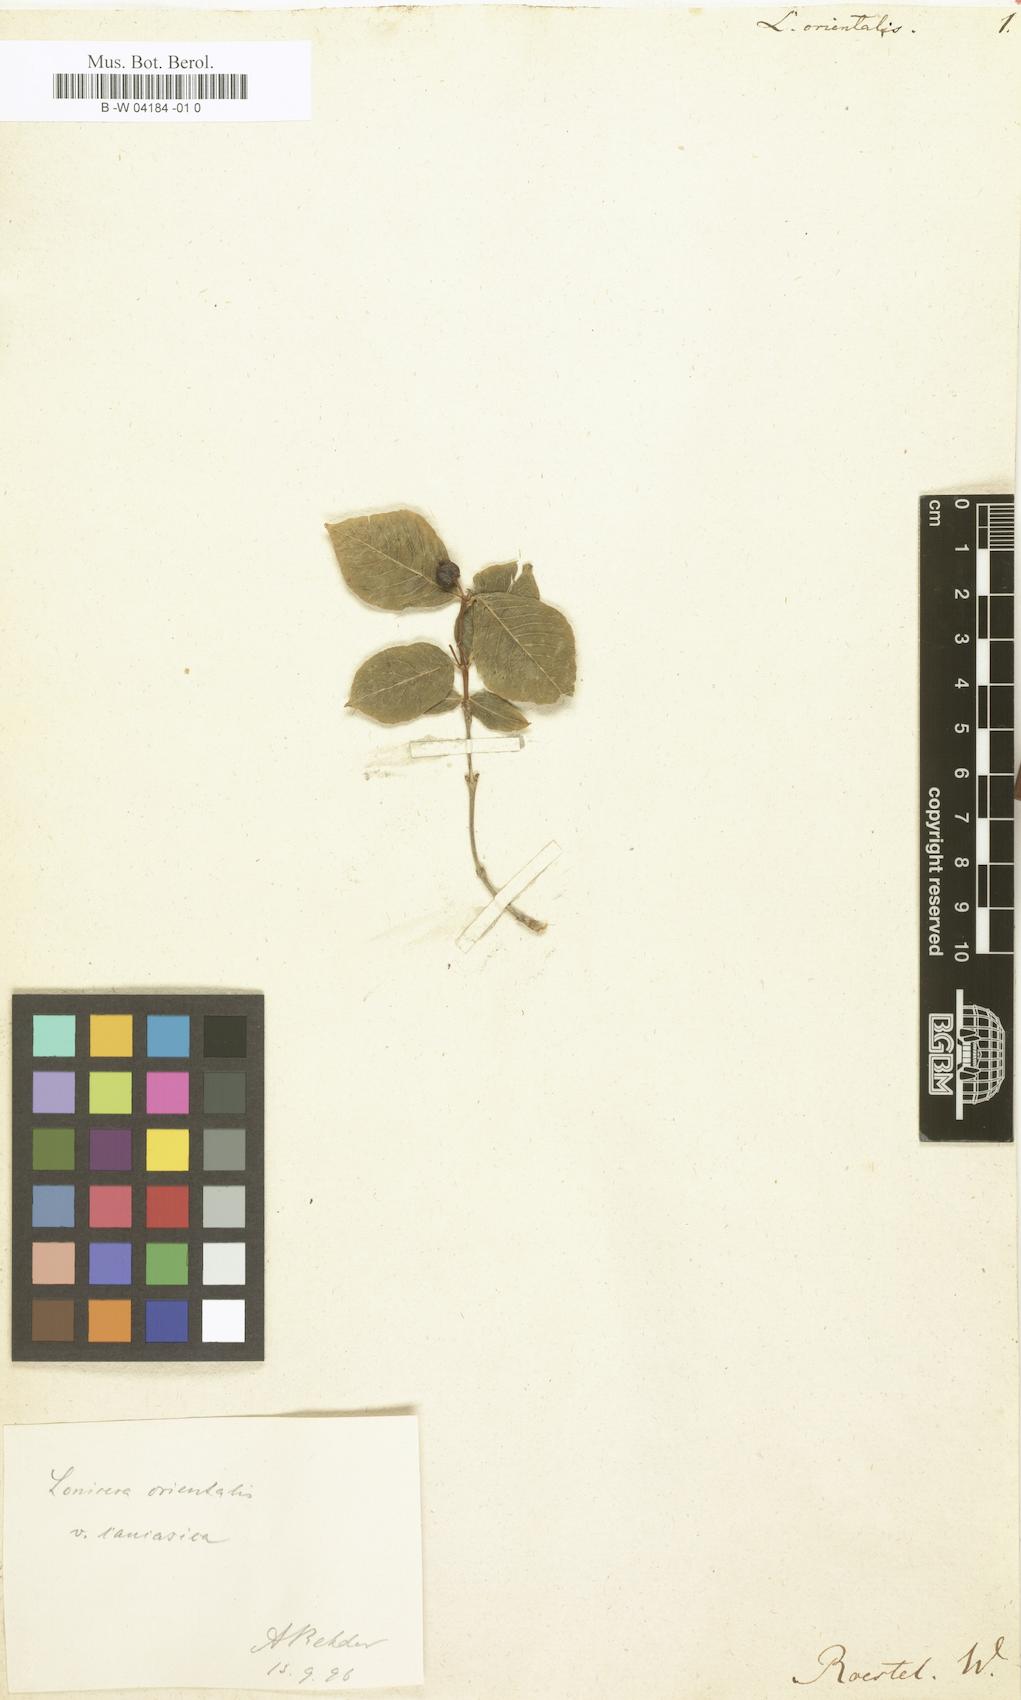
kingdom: Plantae
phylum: Tracheophyta
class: Magnoliopsida
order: Dipsacales
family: Caprifoliaceae
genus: Lonicera
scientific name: Lonicera caucasica
